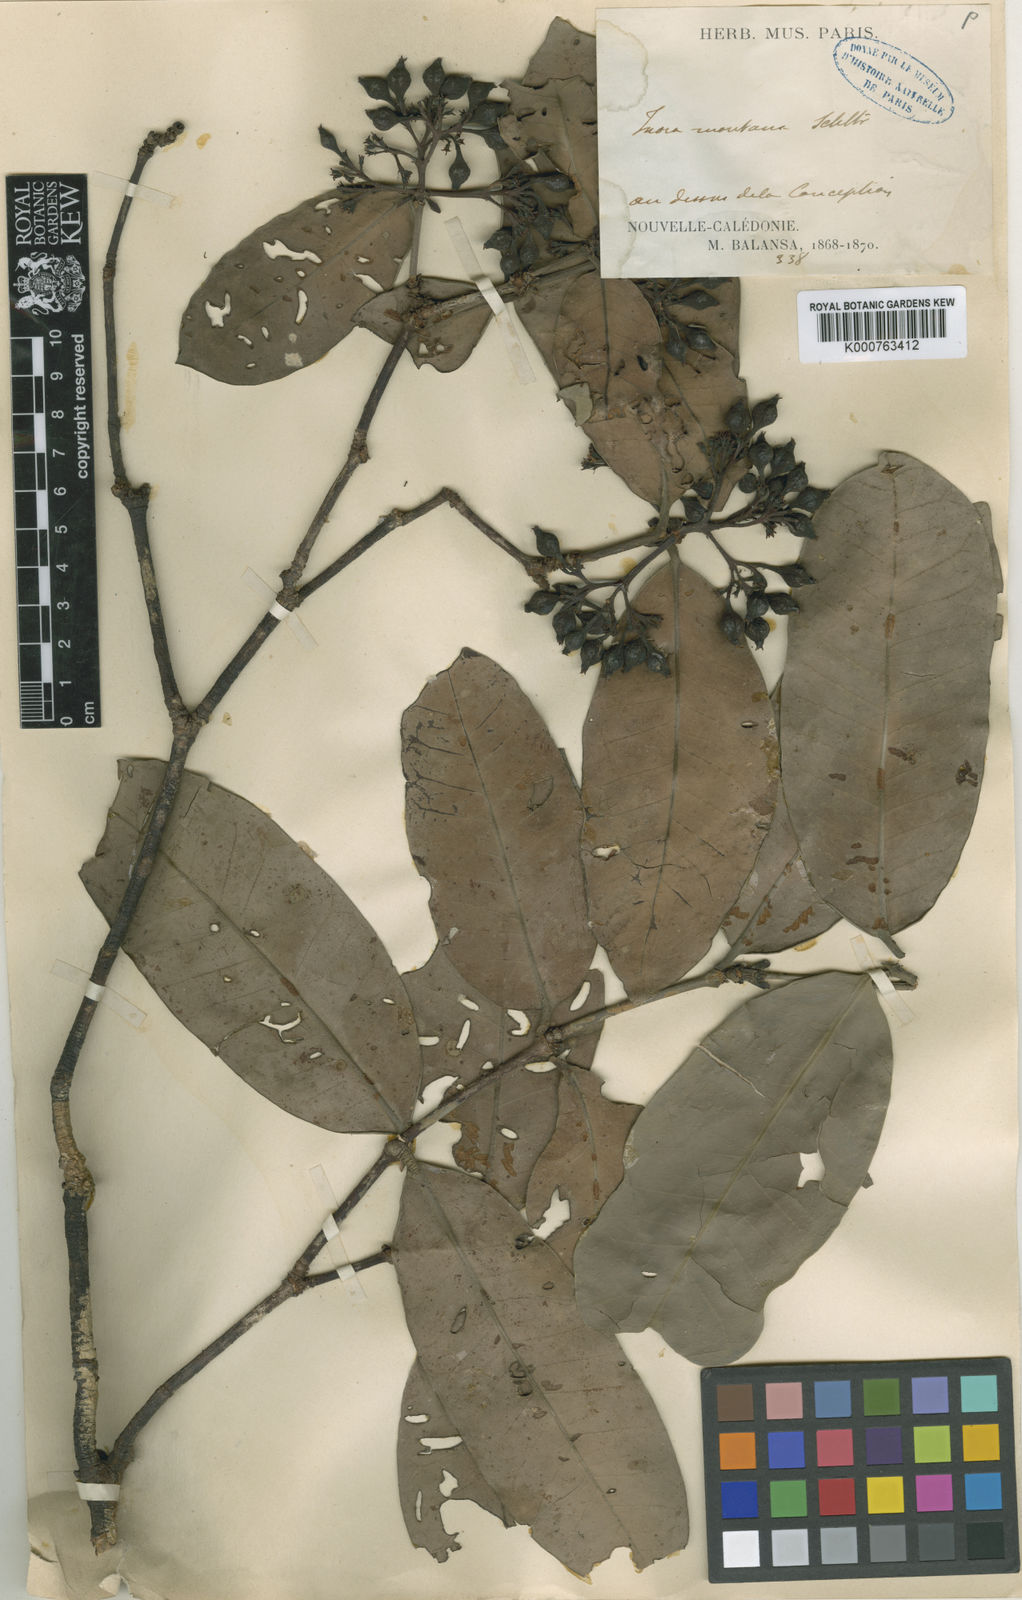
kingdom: Plantae
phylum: Tracheophyta
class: Magnoliopsida
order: Gentianales
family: Rubiaceae
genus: Ixora
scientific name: Ixora scheffleri
